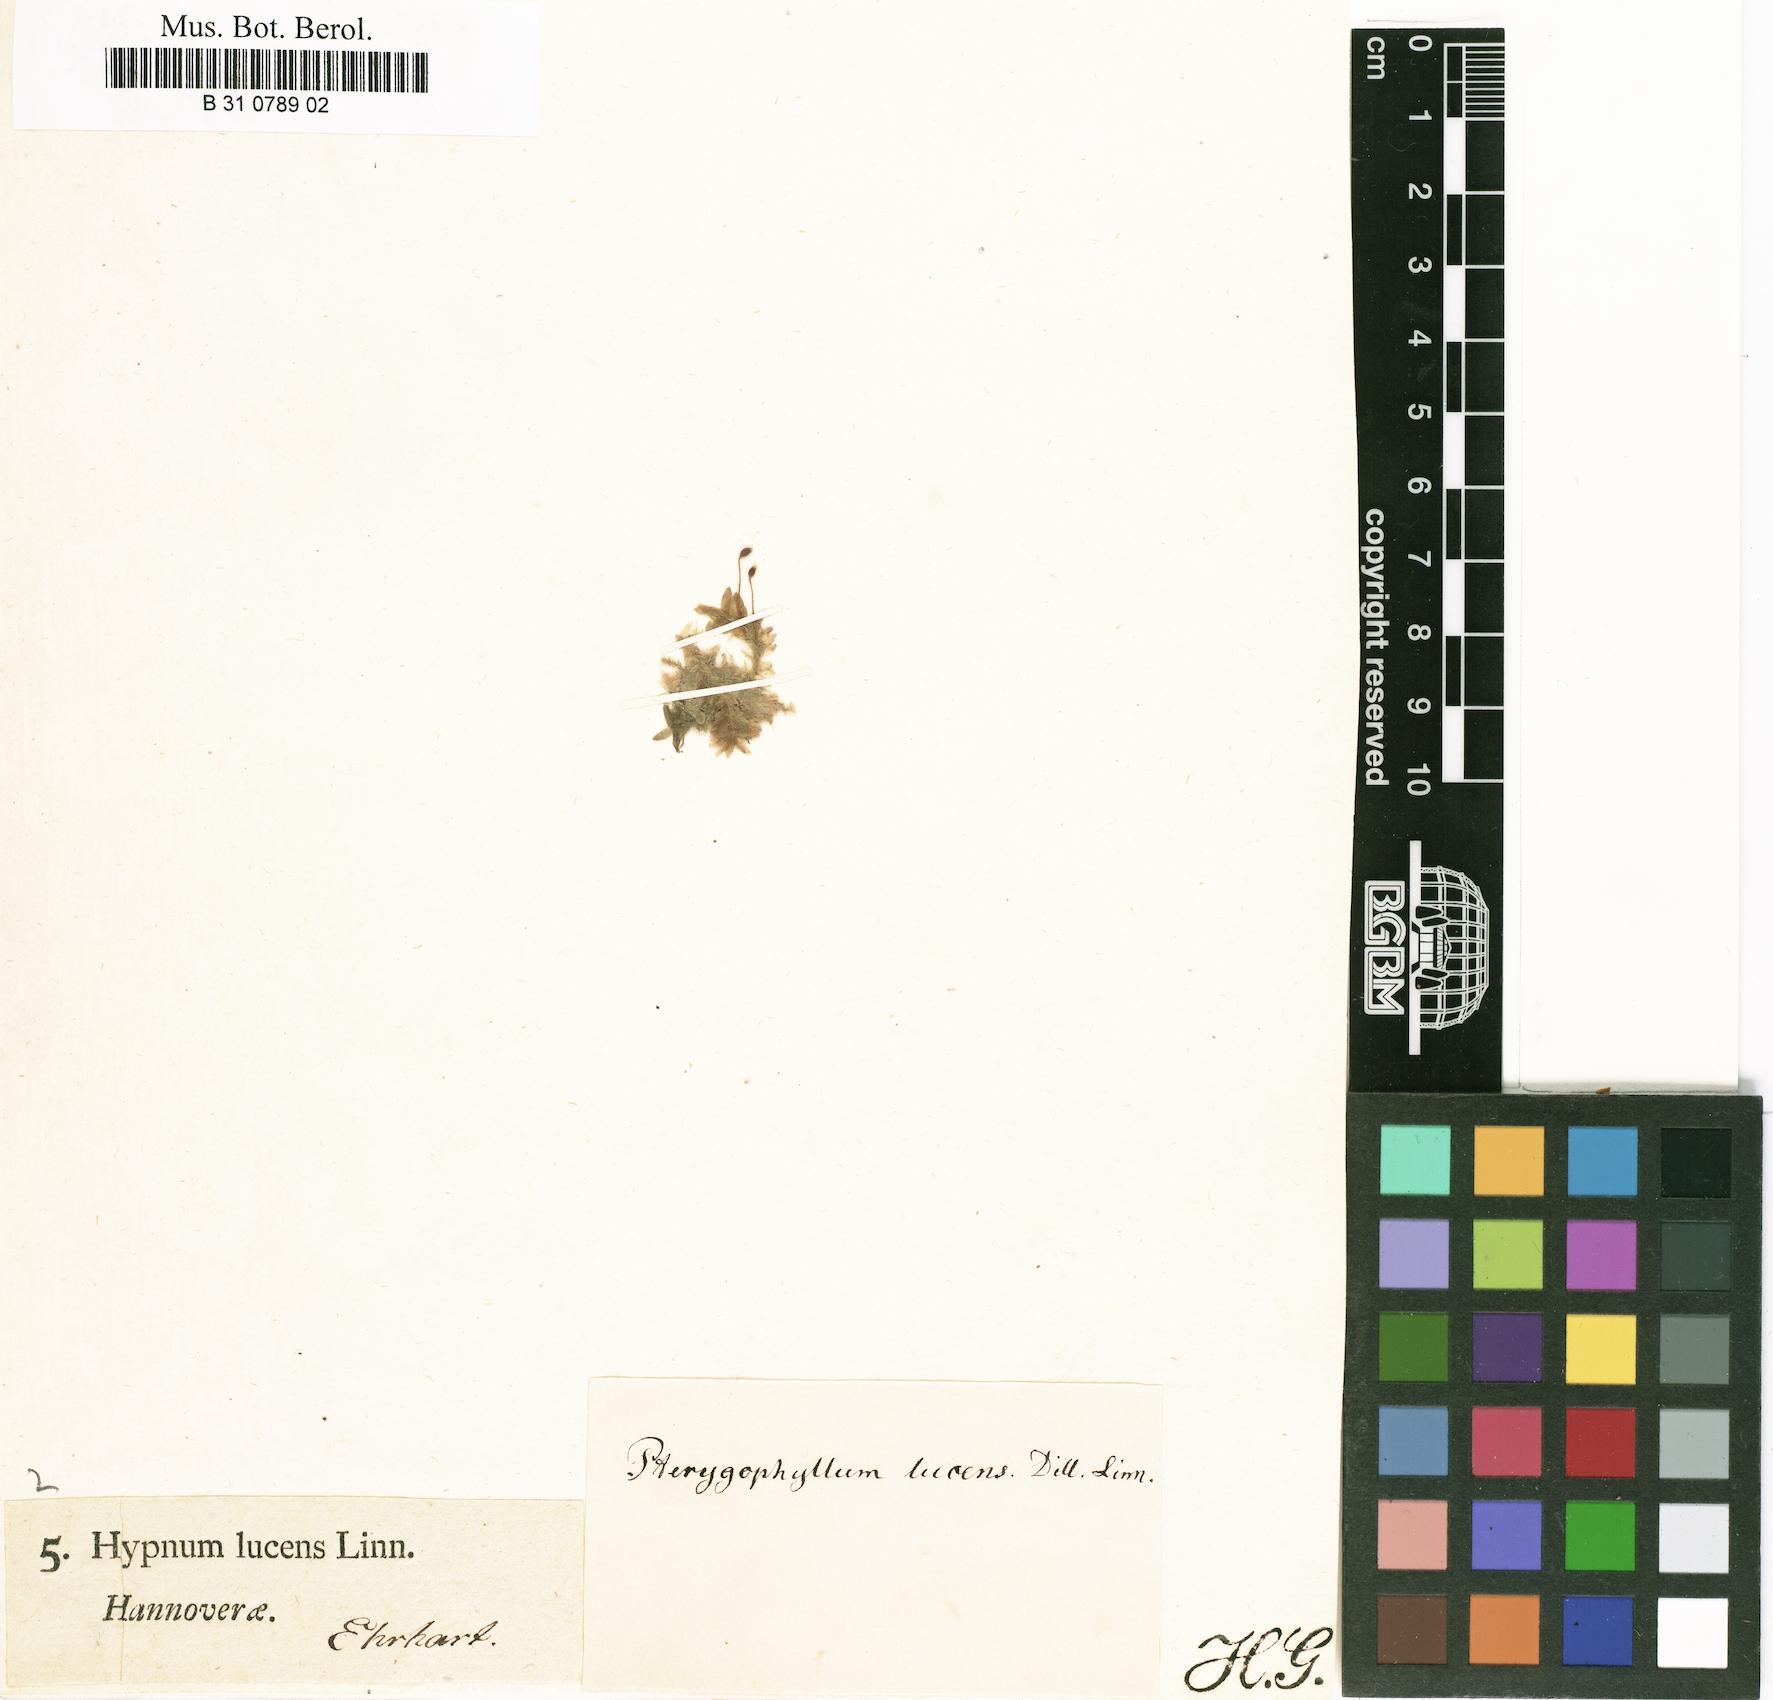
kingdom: Plantae
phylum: Bryophyta
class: Bryopsida
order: Hookeriales
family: Hookeriaceae
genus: Hookeria
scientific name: Hookeria lucens
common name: Shining hookeria
